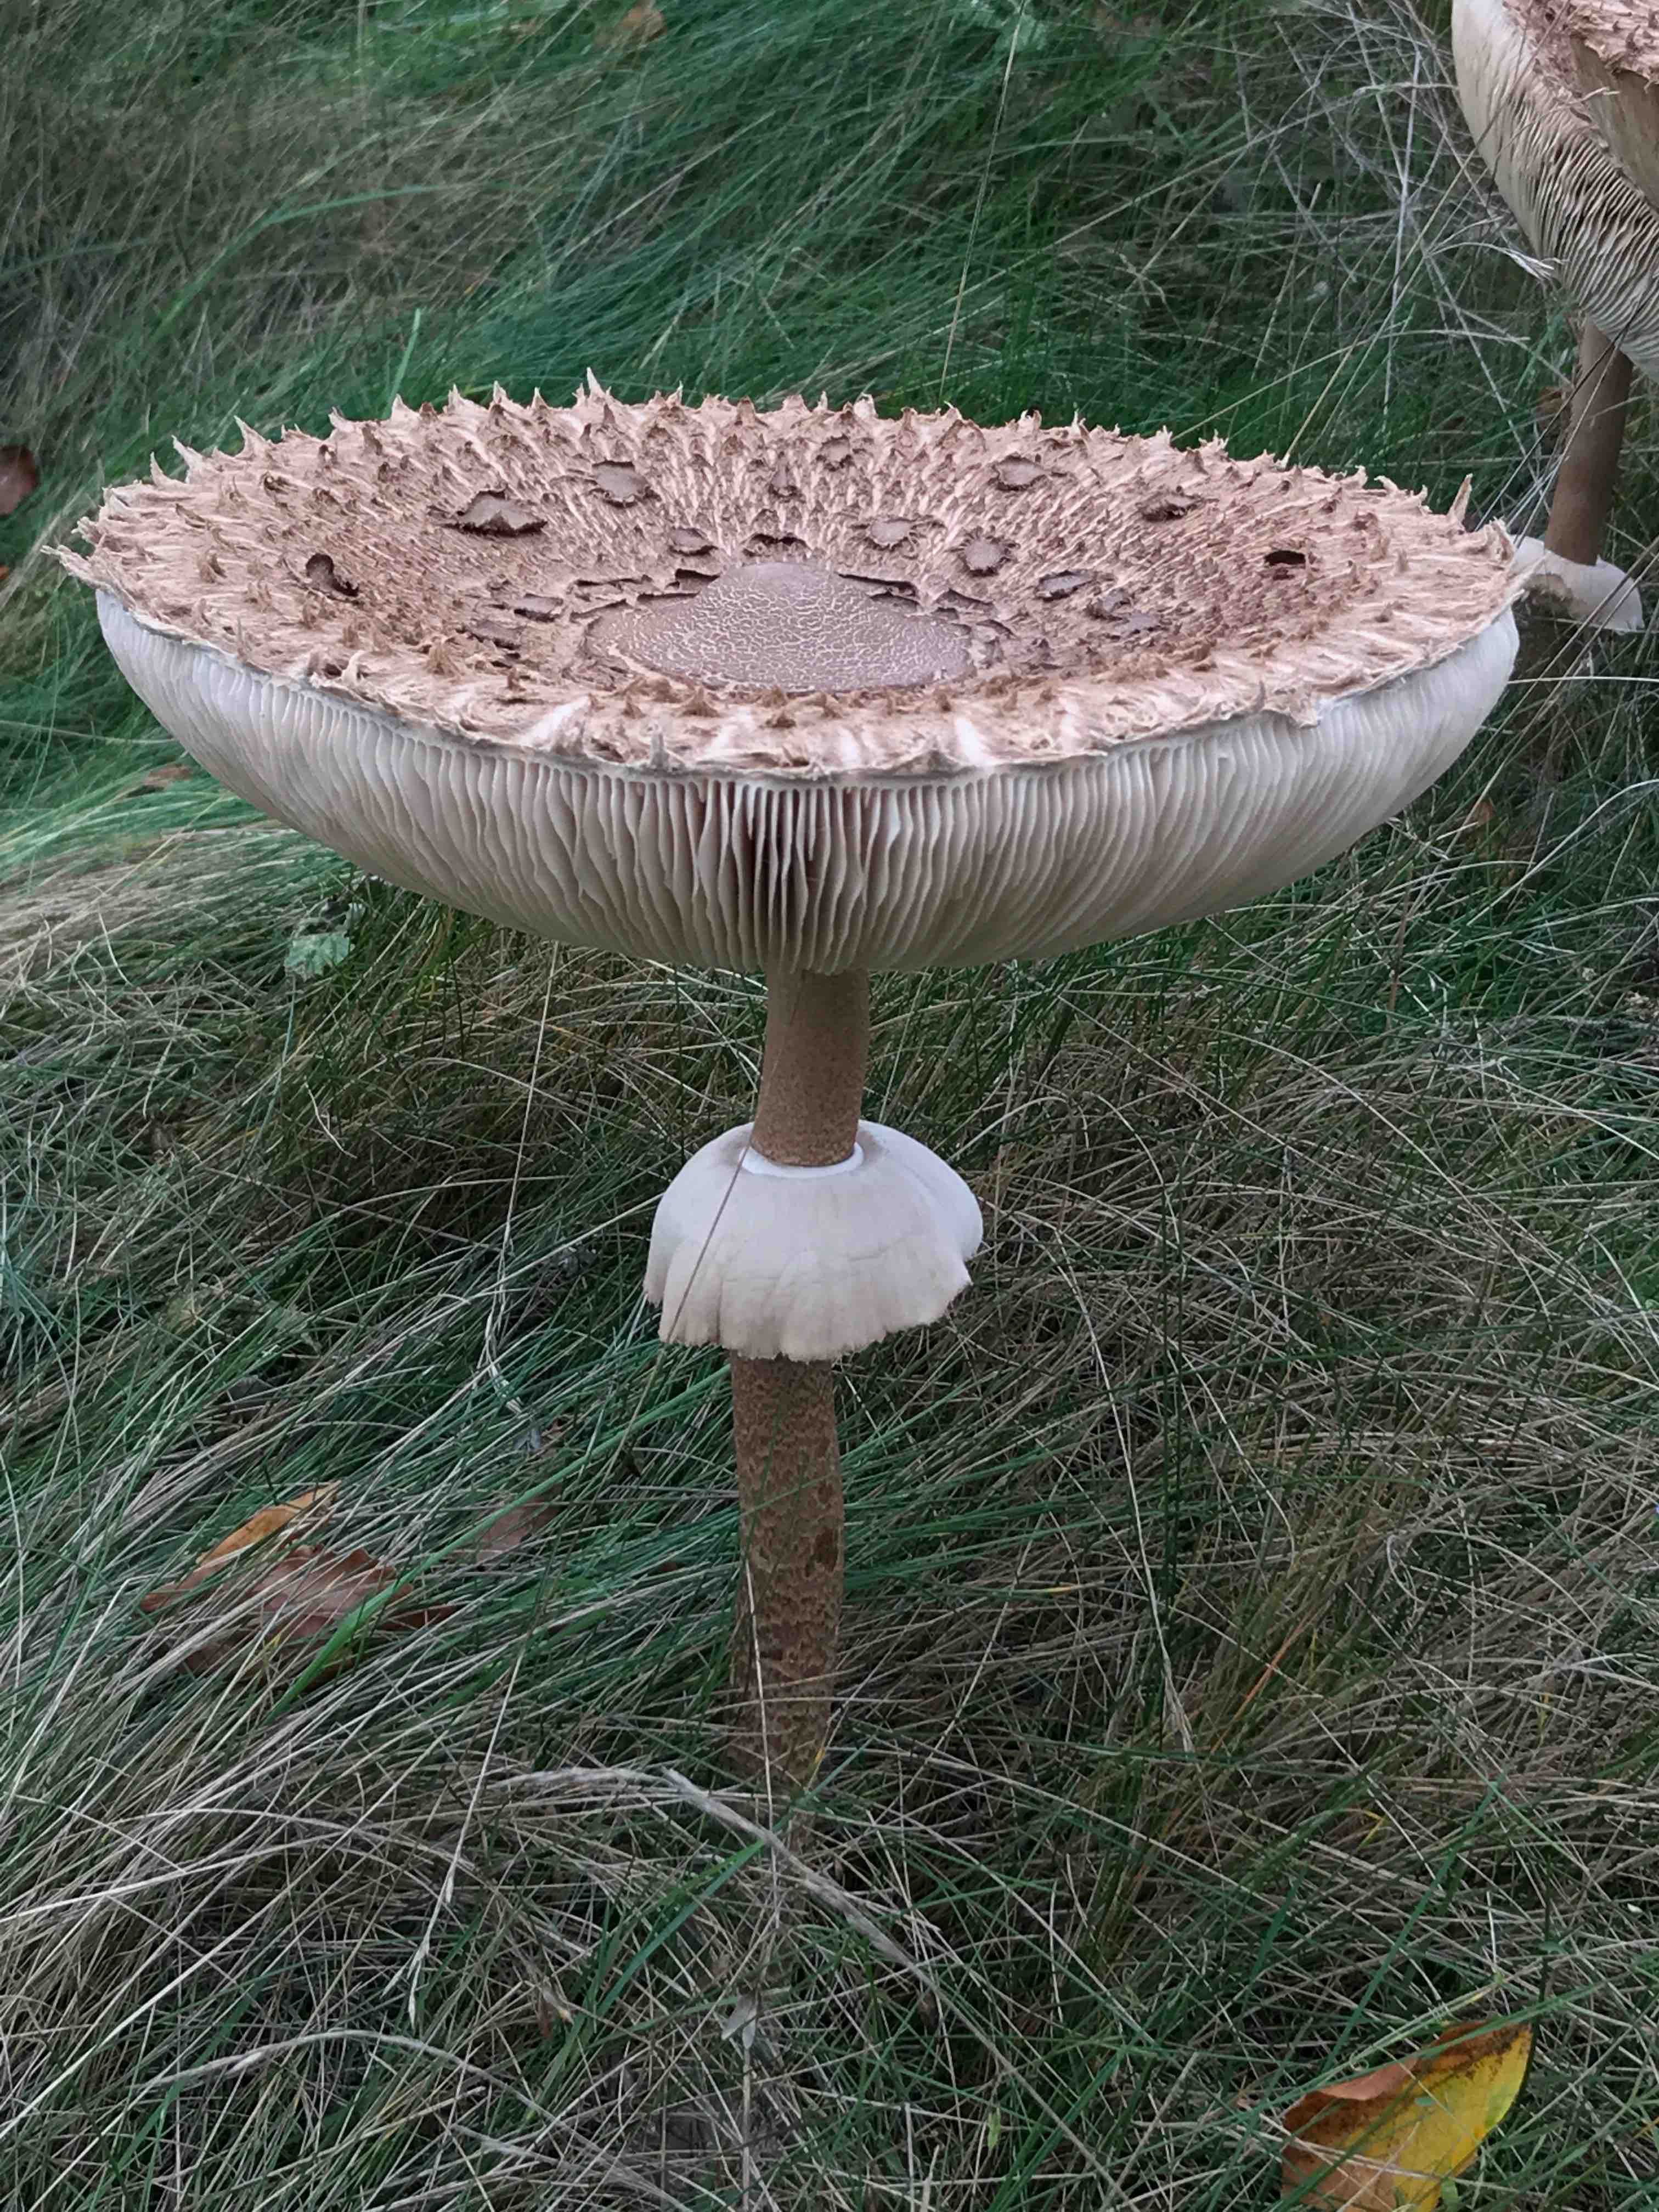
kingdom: Fungi
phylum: Basidiomycota
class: Agaricomycetes
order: Agaricales
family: Agaricaceae
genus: Macrolepiota
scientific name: Macrolepiota procera
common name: stor kæmpeparasolhat
